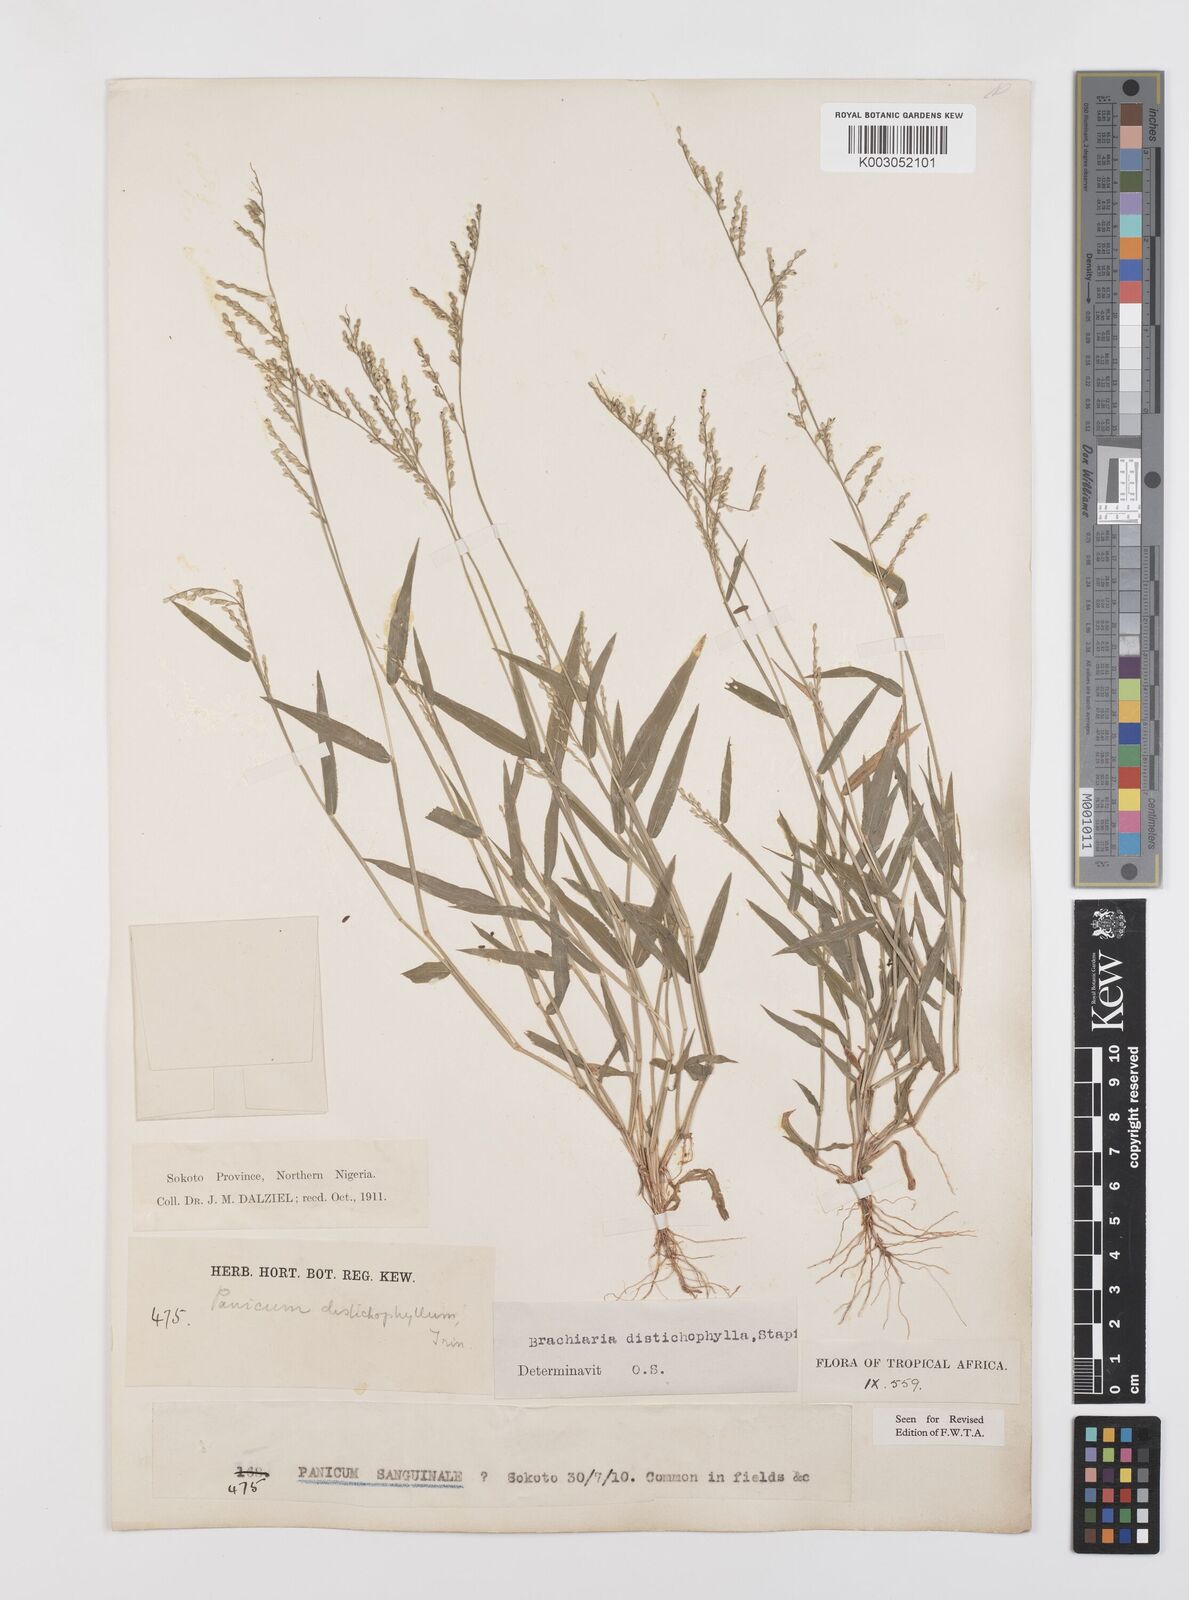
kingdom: Plantae
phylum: Tracheophyta
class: Liliopsida
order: Poales
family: Poaceae
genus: Urochloa
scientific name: Urochloa villosa
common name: Hairy signalgrass
